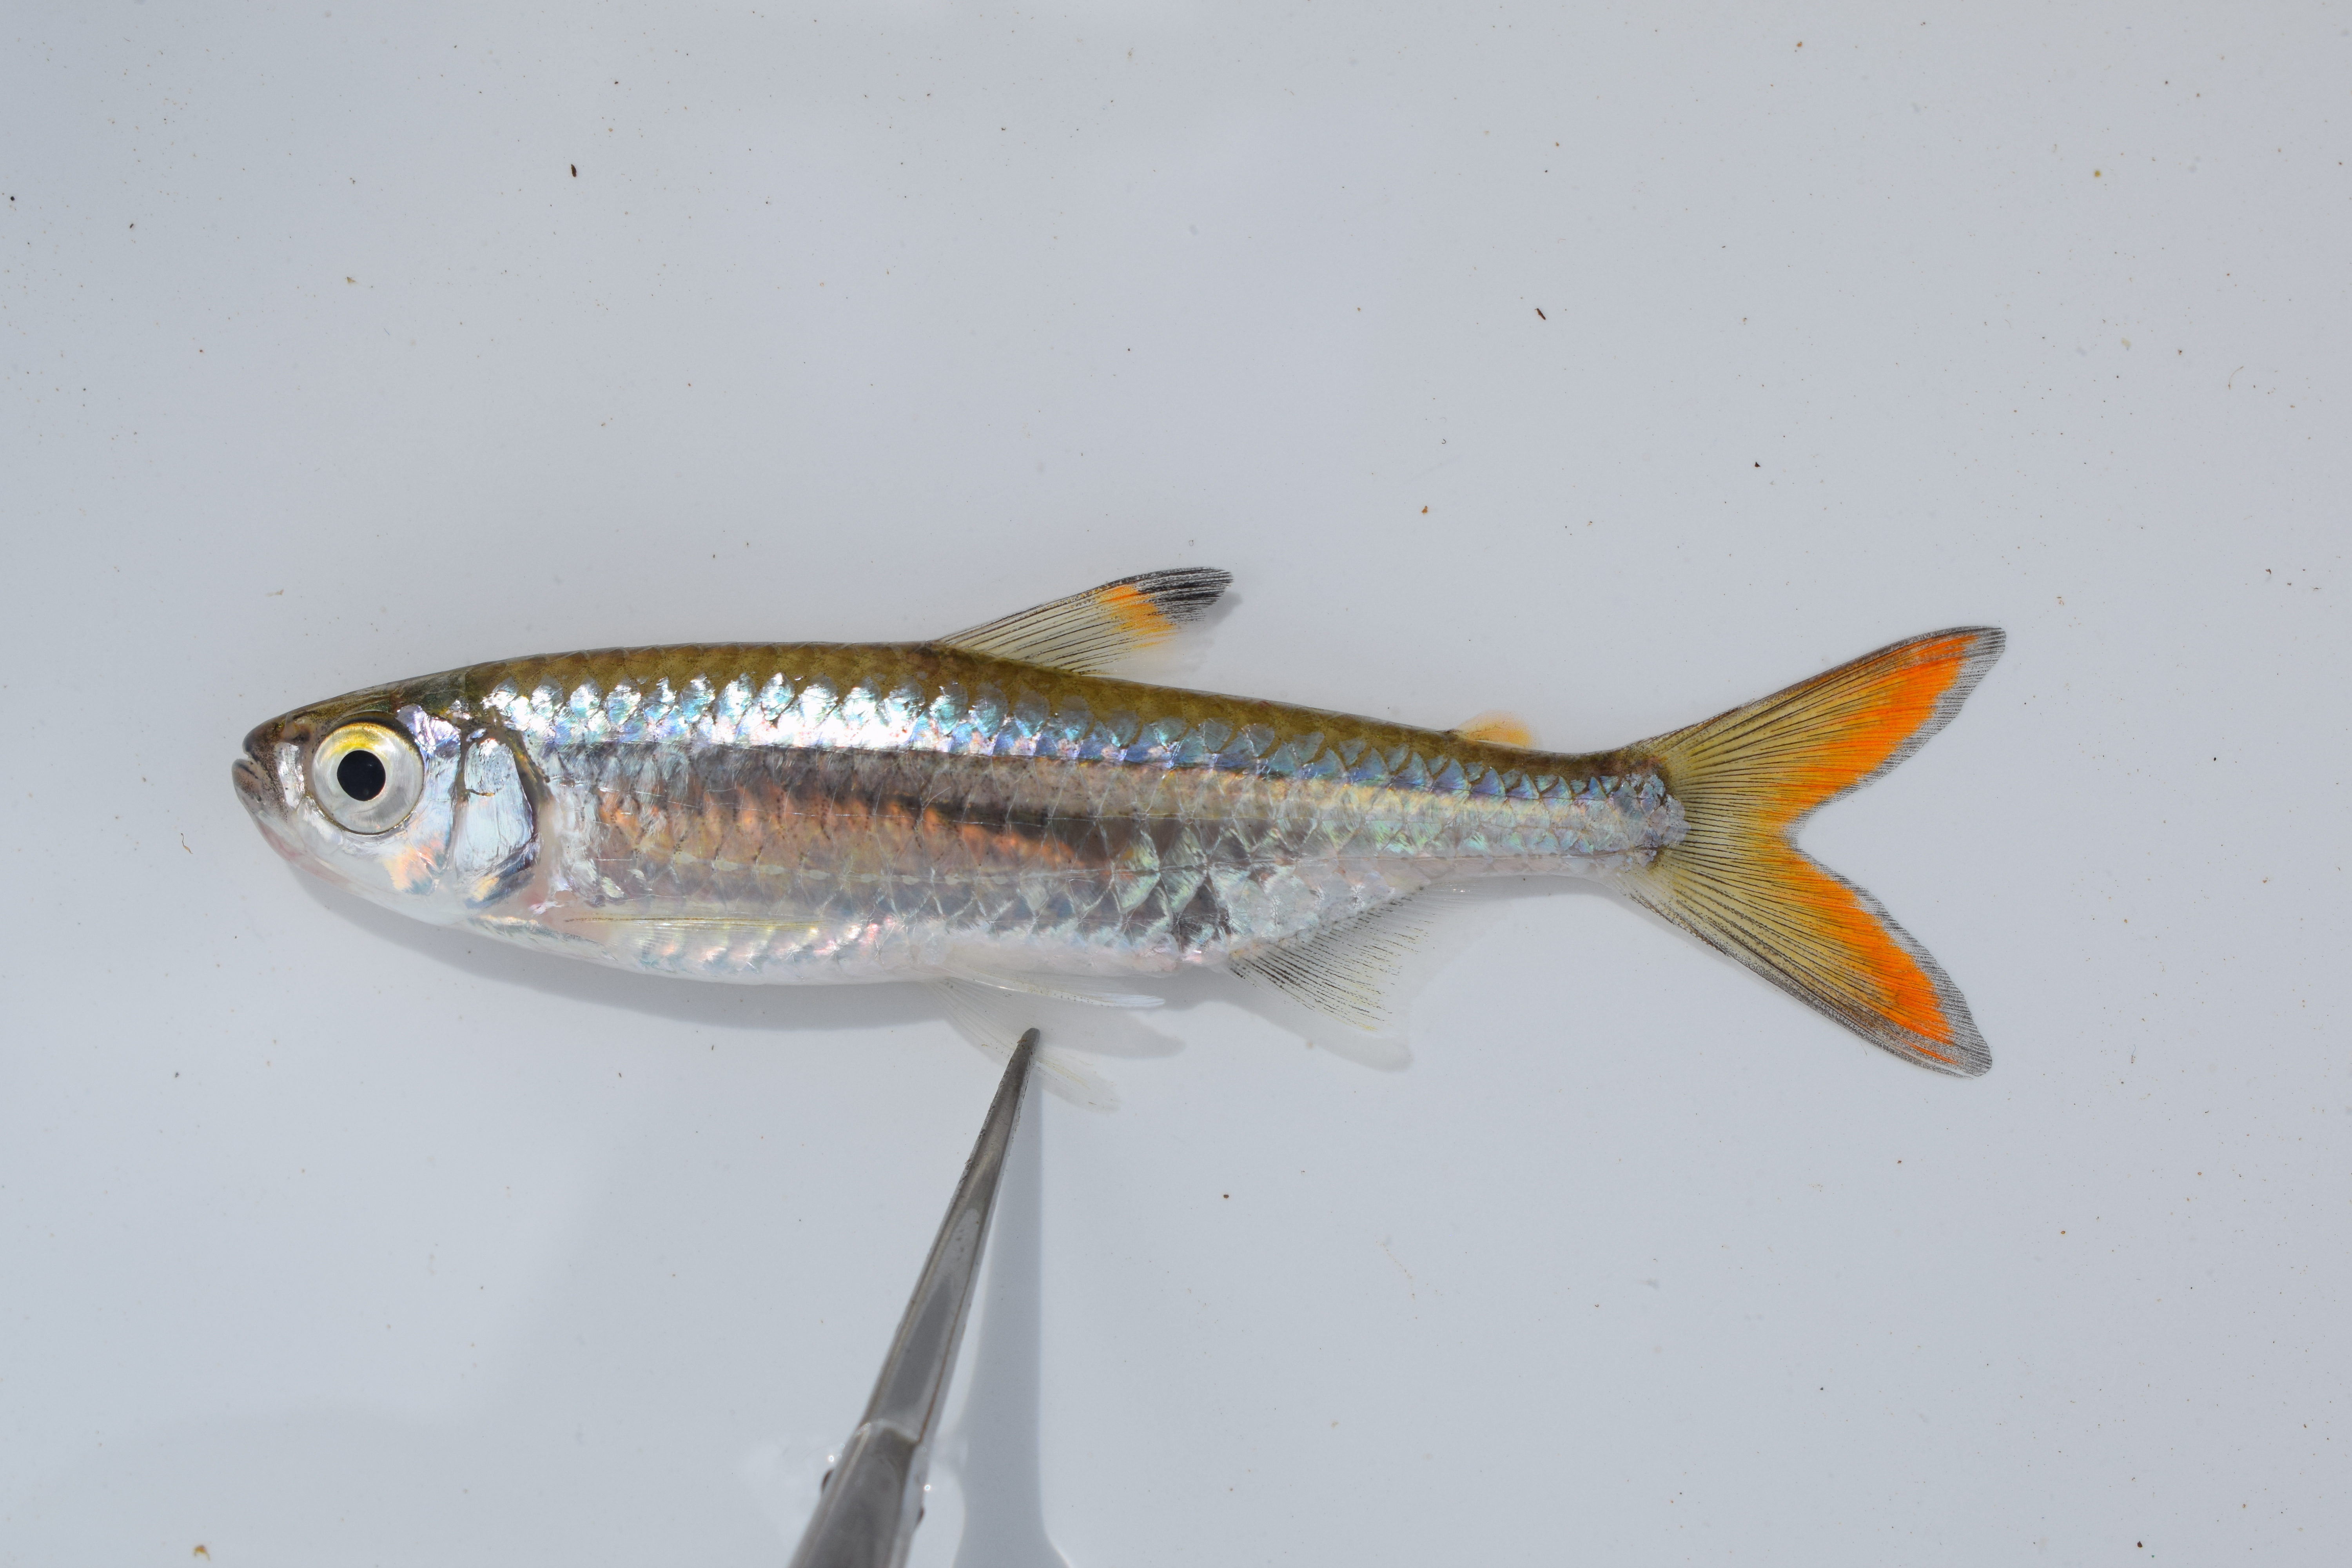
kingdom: Animalia
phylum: Chordata
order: Characiformes
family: Alestidae
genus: Micralestes
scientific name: Micralestes acutidens
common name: Silver robber
